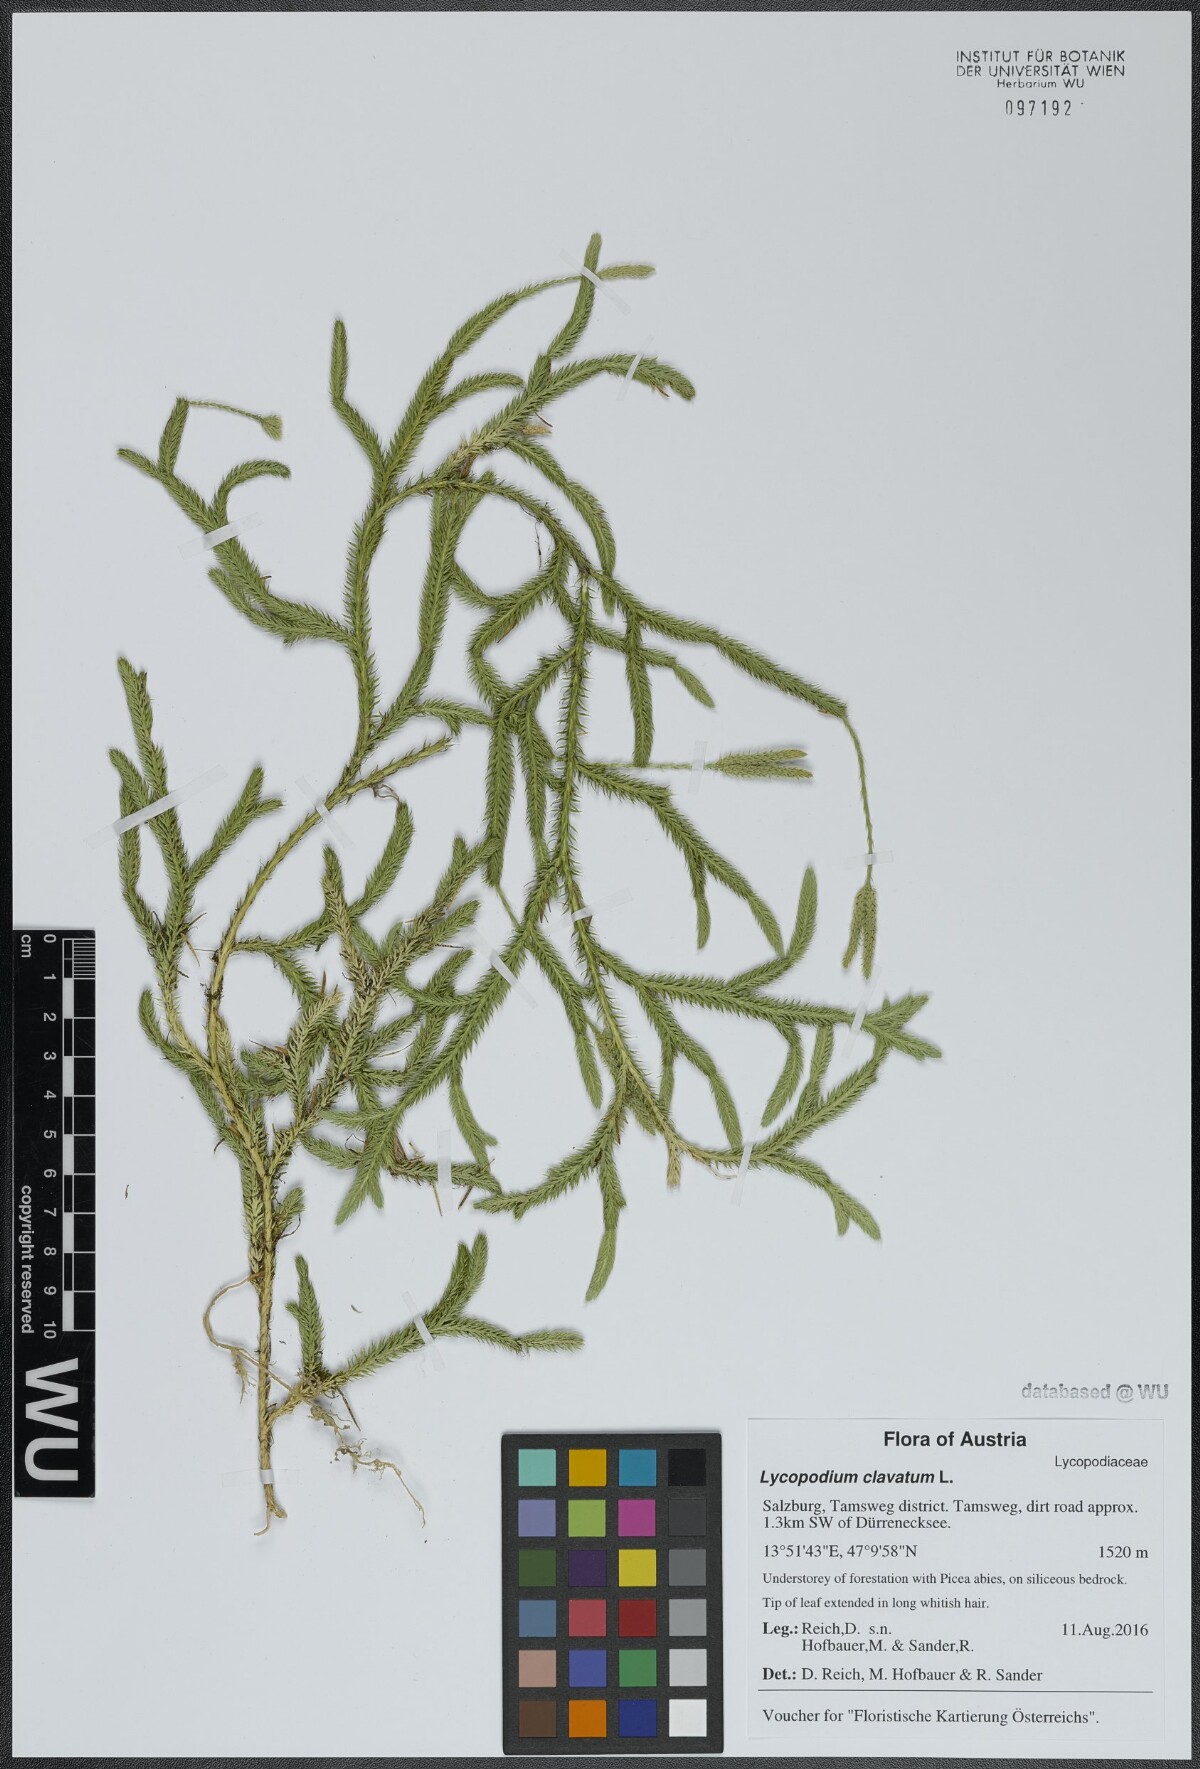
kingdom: Plantae
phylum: Tracheophyta
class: Lycopodiopsida
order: Lycopodiales
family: Lycopodiaceae
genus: Lycopodium
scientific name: Lycopodium clavatum
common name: Stag's-horn clubmoss
